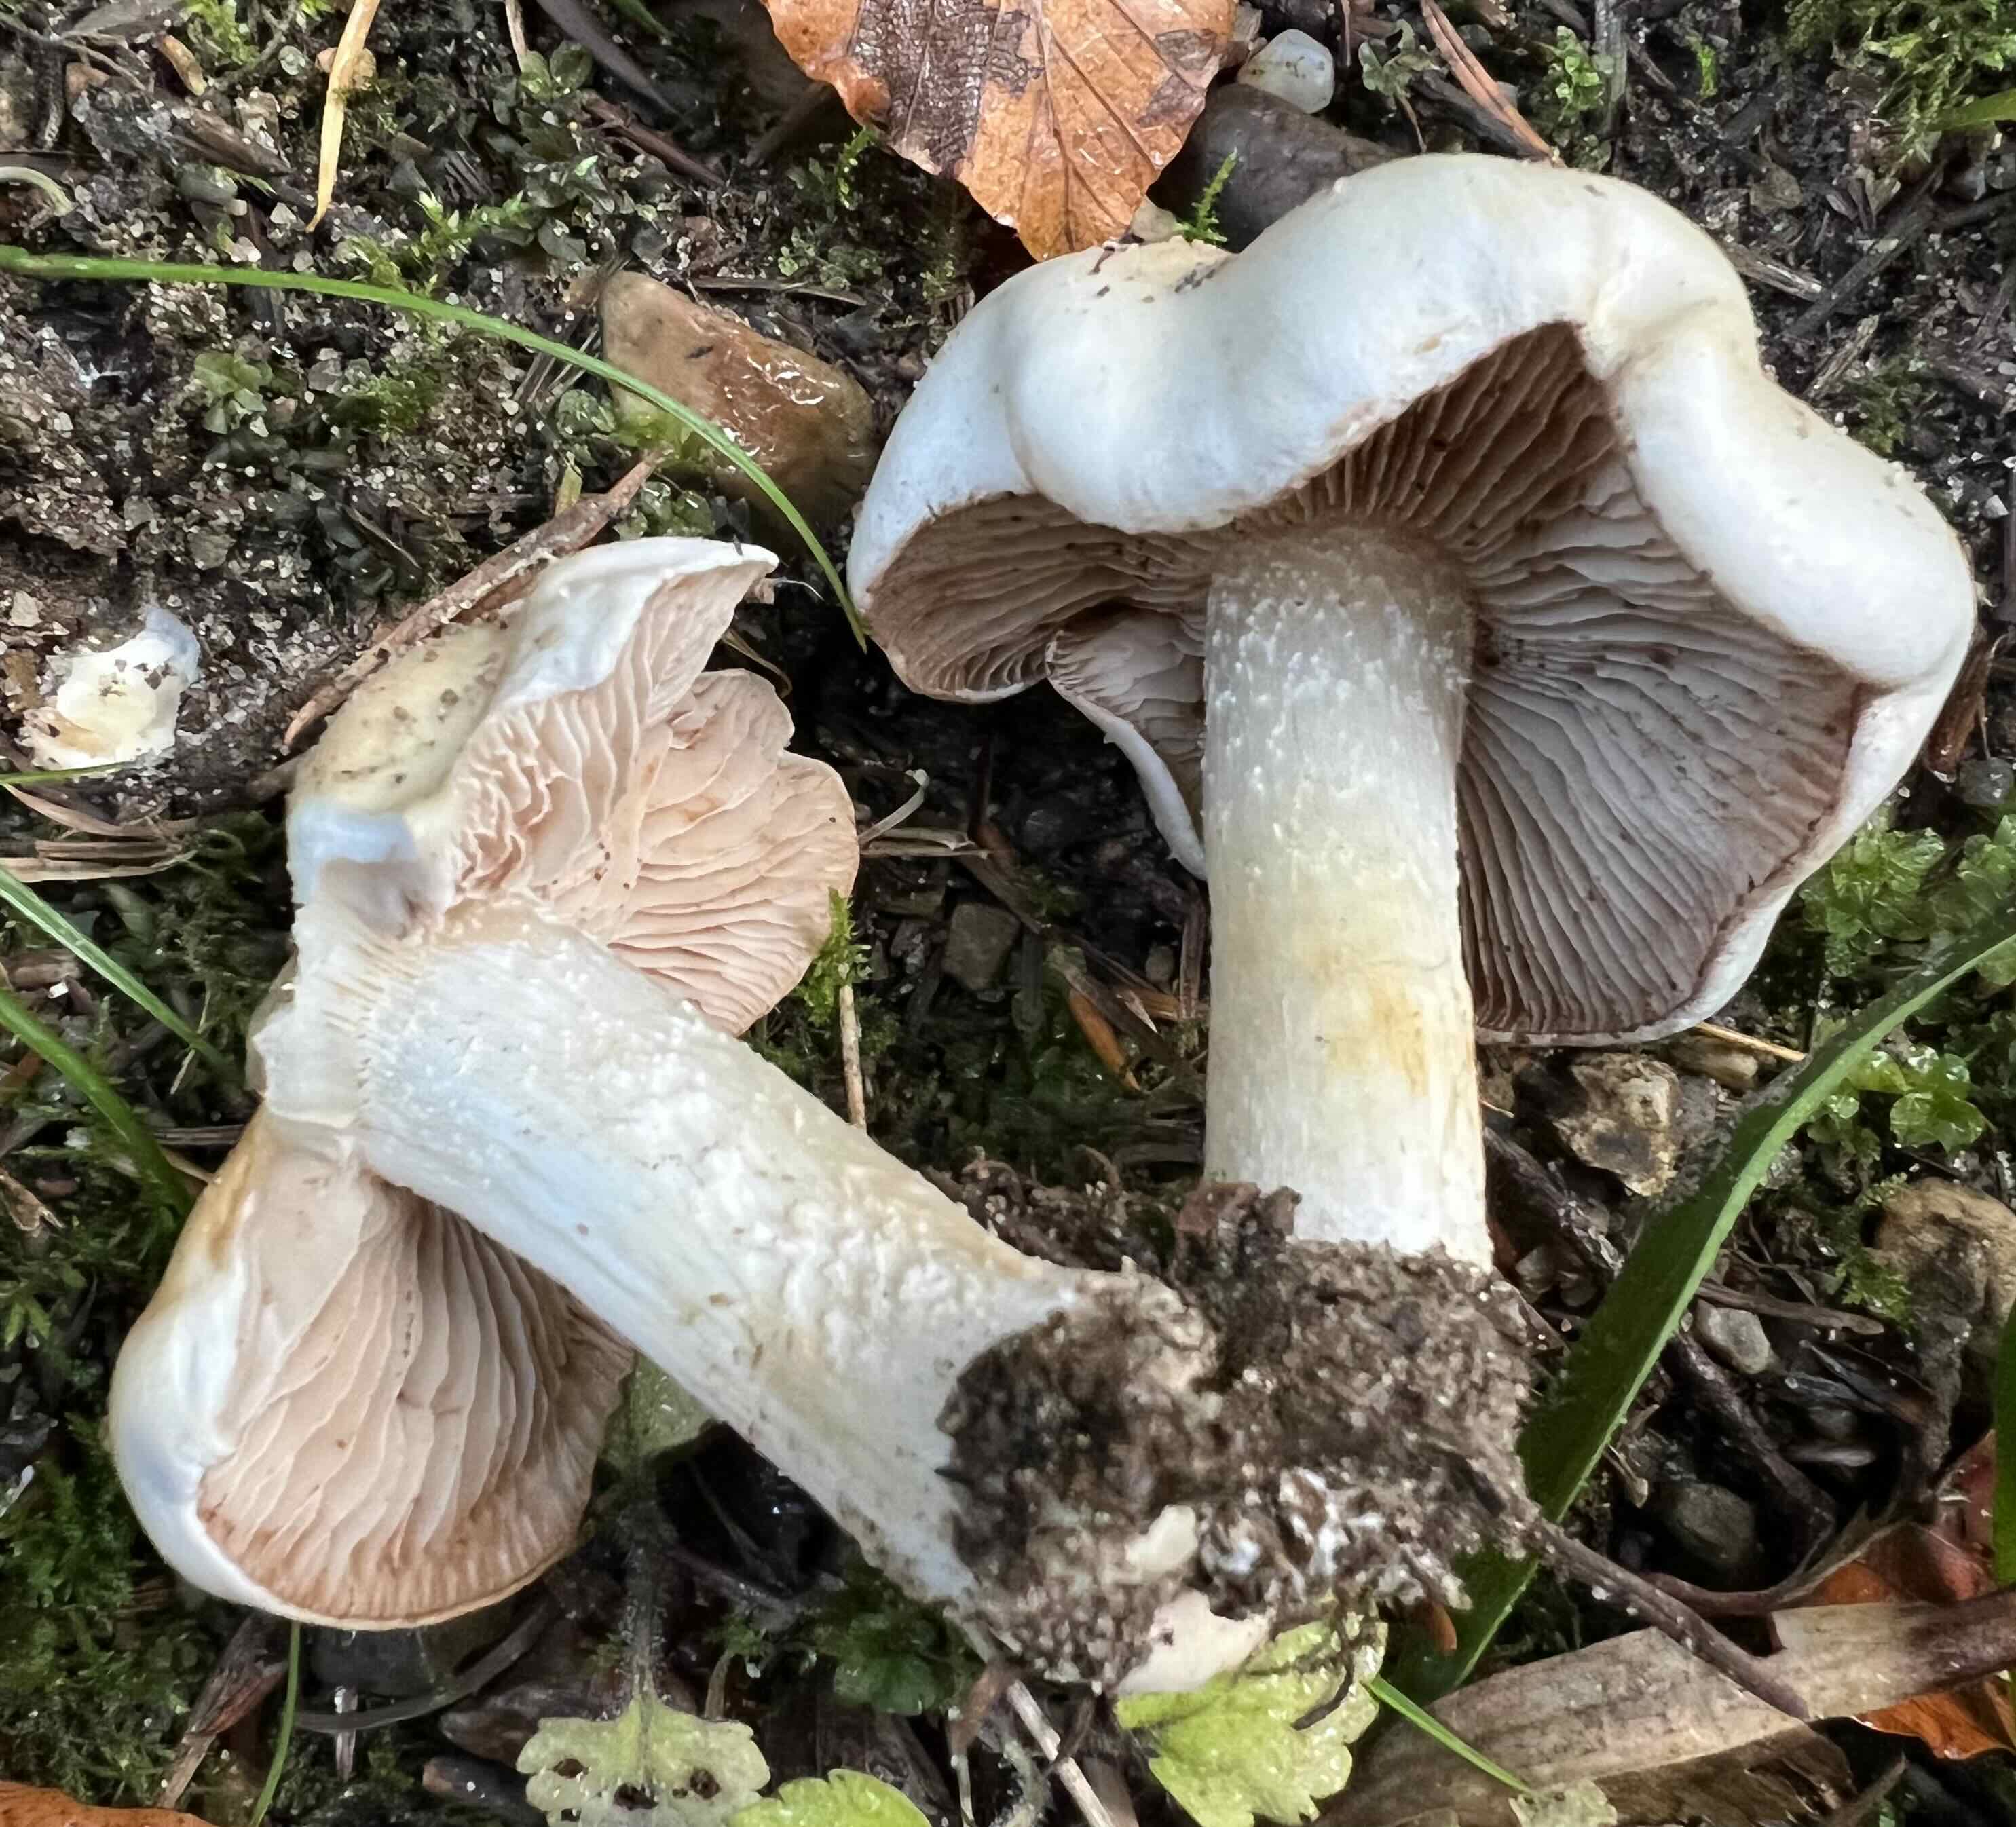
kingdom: Fungi
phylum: Basidiomycota
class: Agaricomycetes
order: Agaricales
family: Hymenogastraceae
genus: Hebeloma
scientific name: Hebeloma crustuliniforme
